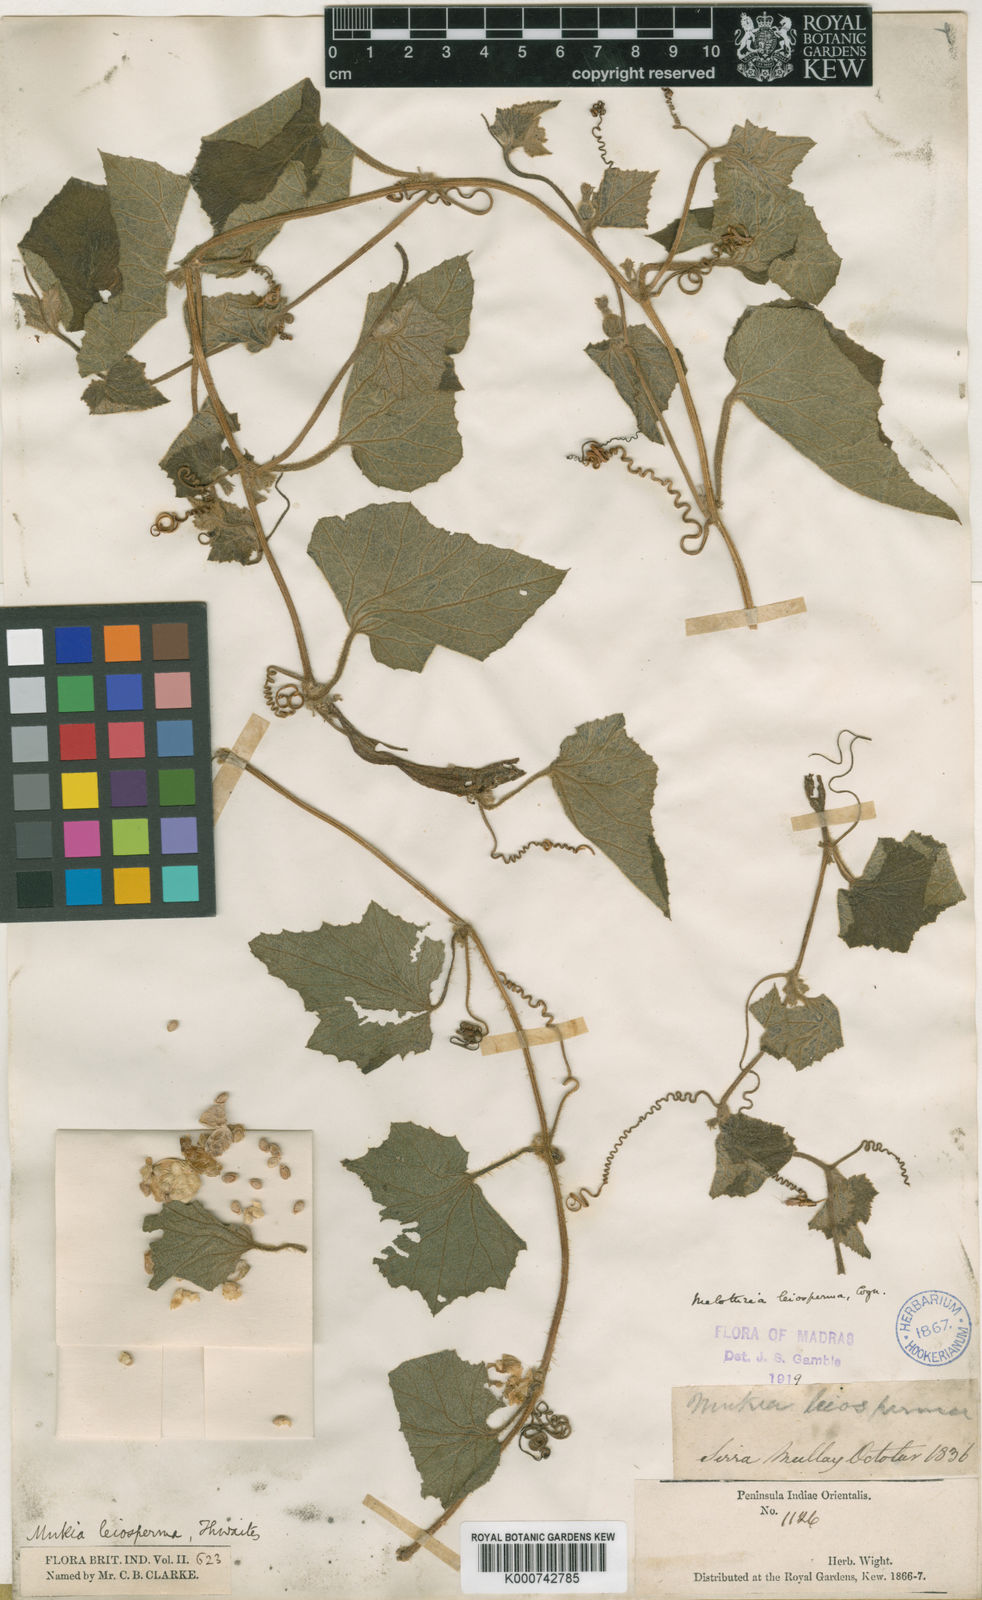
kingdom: Animalia
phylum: Arthropoda
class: Insecta
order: Lepidoptera
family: Crambidae
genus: Mukia
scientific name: Mukia
